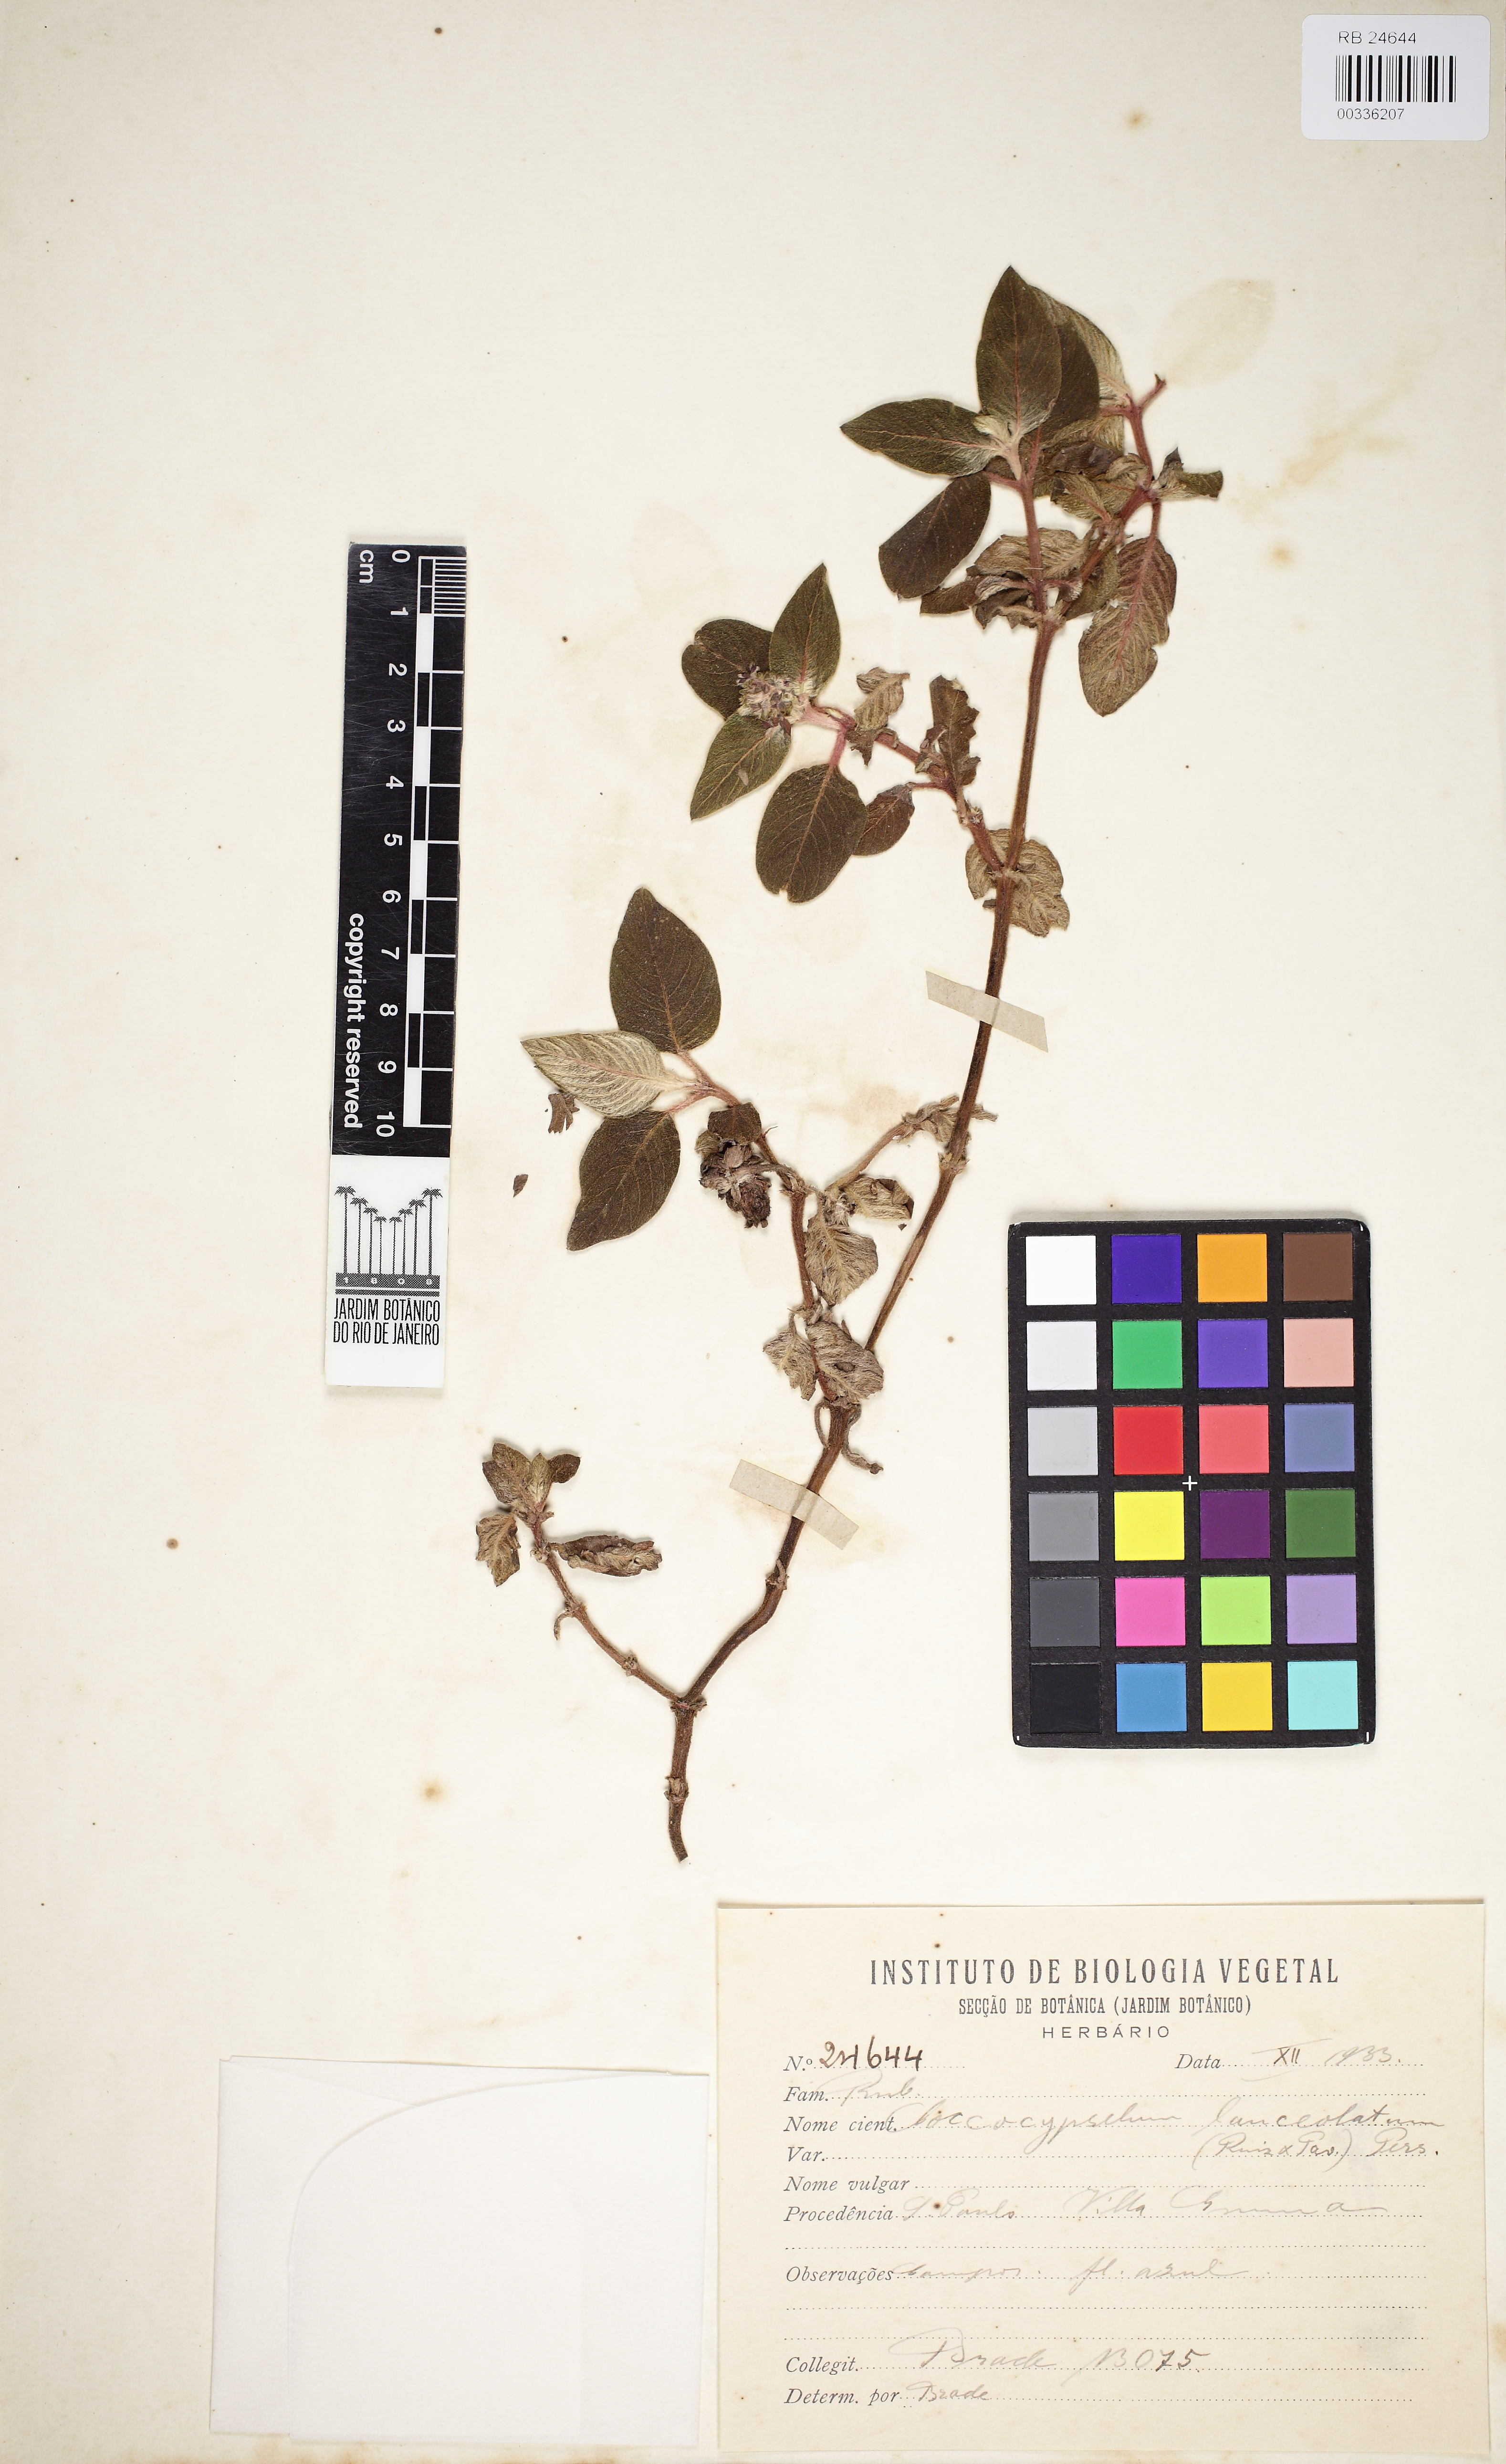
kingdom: Plantae
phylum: Tracheophyta
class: Magnoliopsida
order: Gentianales
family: Rubiaceae
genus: Coccocypselum
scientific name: Coccocypselum lanceolatum
